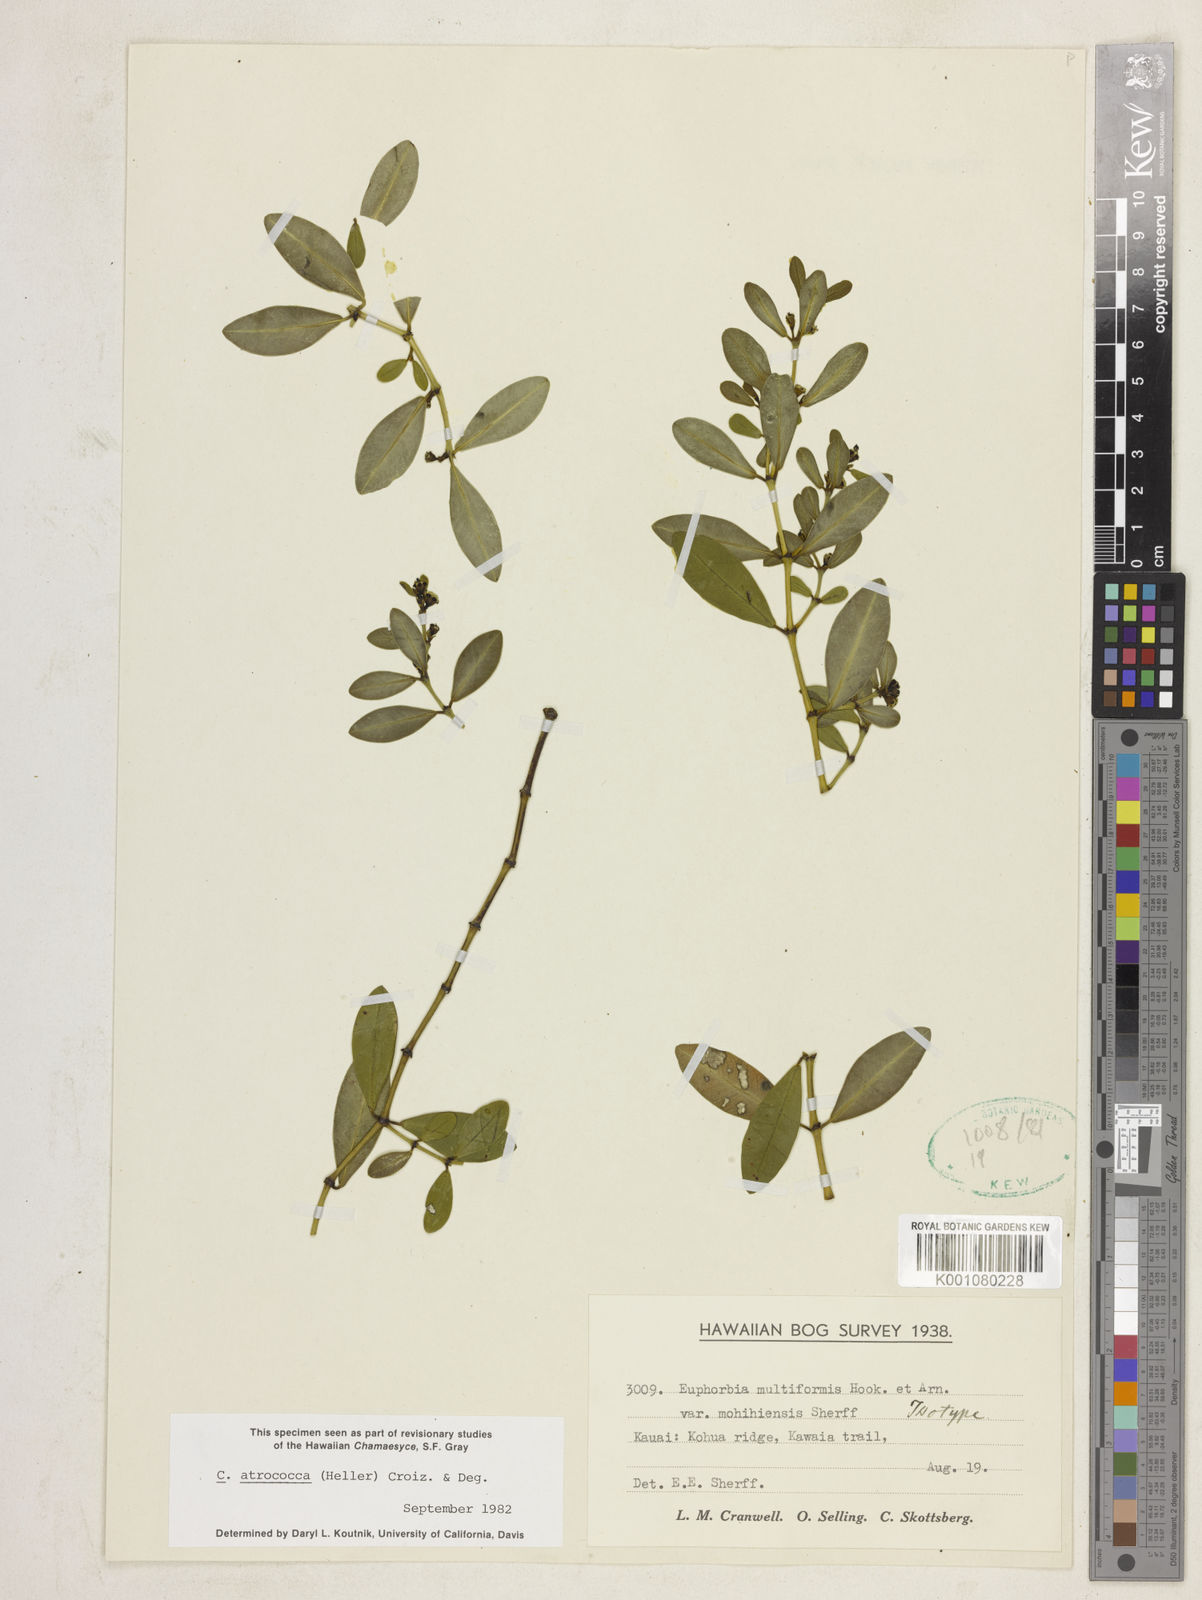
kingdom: Plantae
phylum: Tracheophyta
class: Magnoliopsida
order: Malpighiales
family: Euphorbiaceae
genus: Euphorbia
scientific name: Euphorbia atrococca
